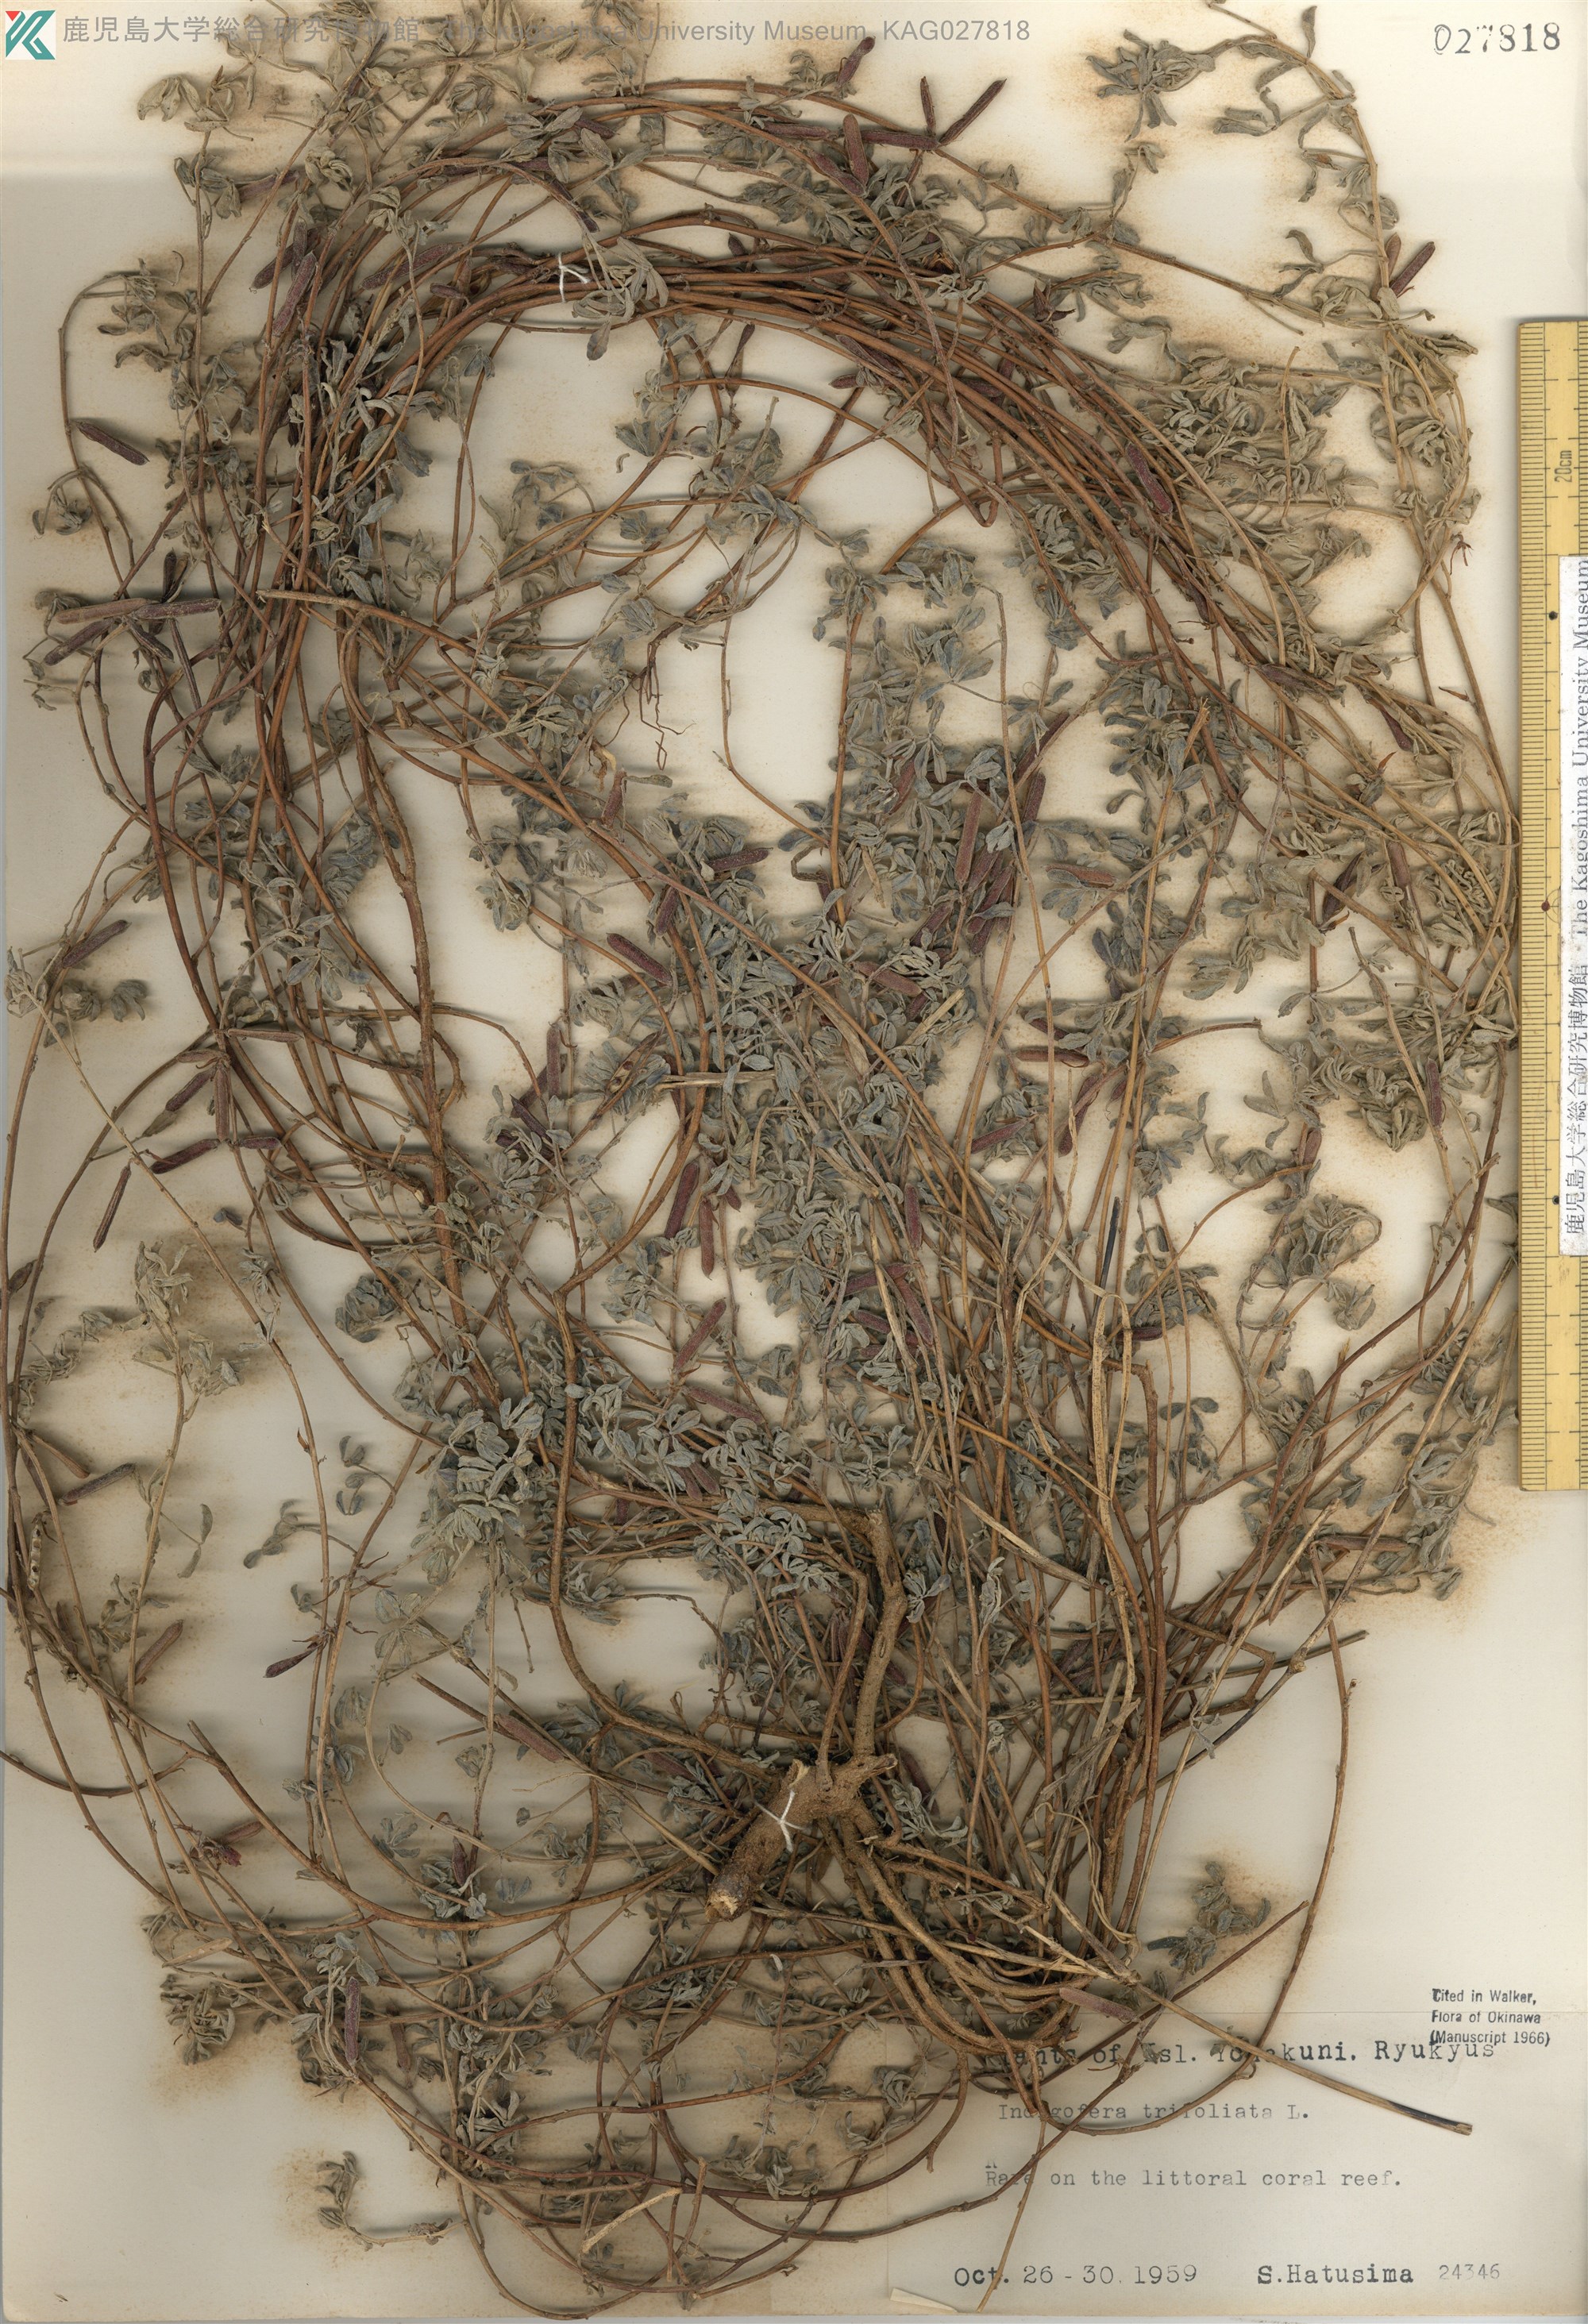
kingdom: Plantae
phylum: Tracheophyta
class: Magnoliopsida
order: Fabales
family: Fabaceae
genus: Indigofera
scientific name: Indigofera trifoliata
